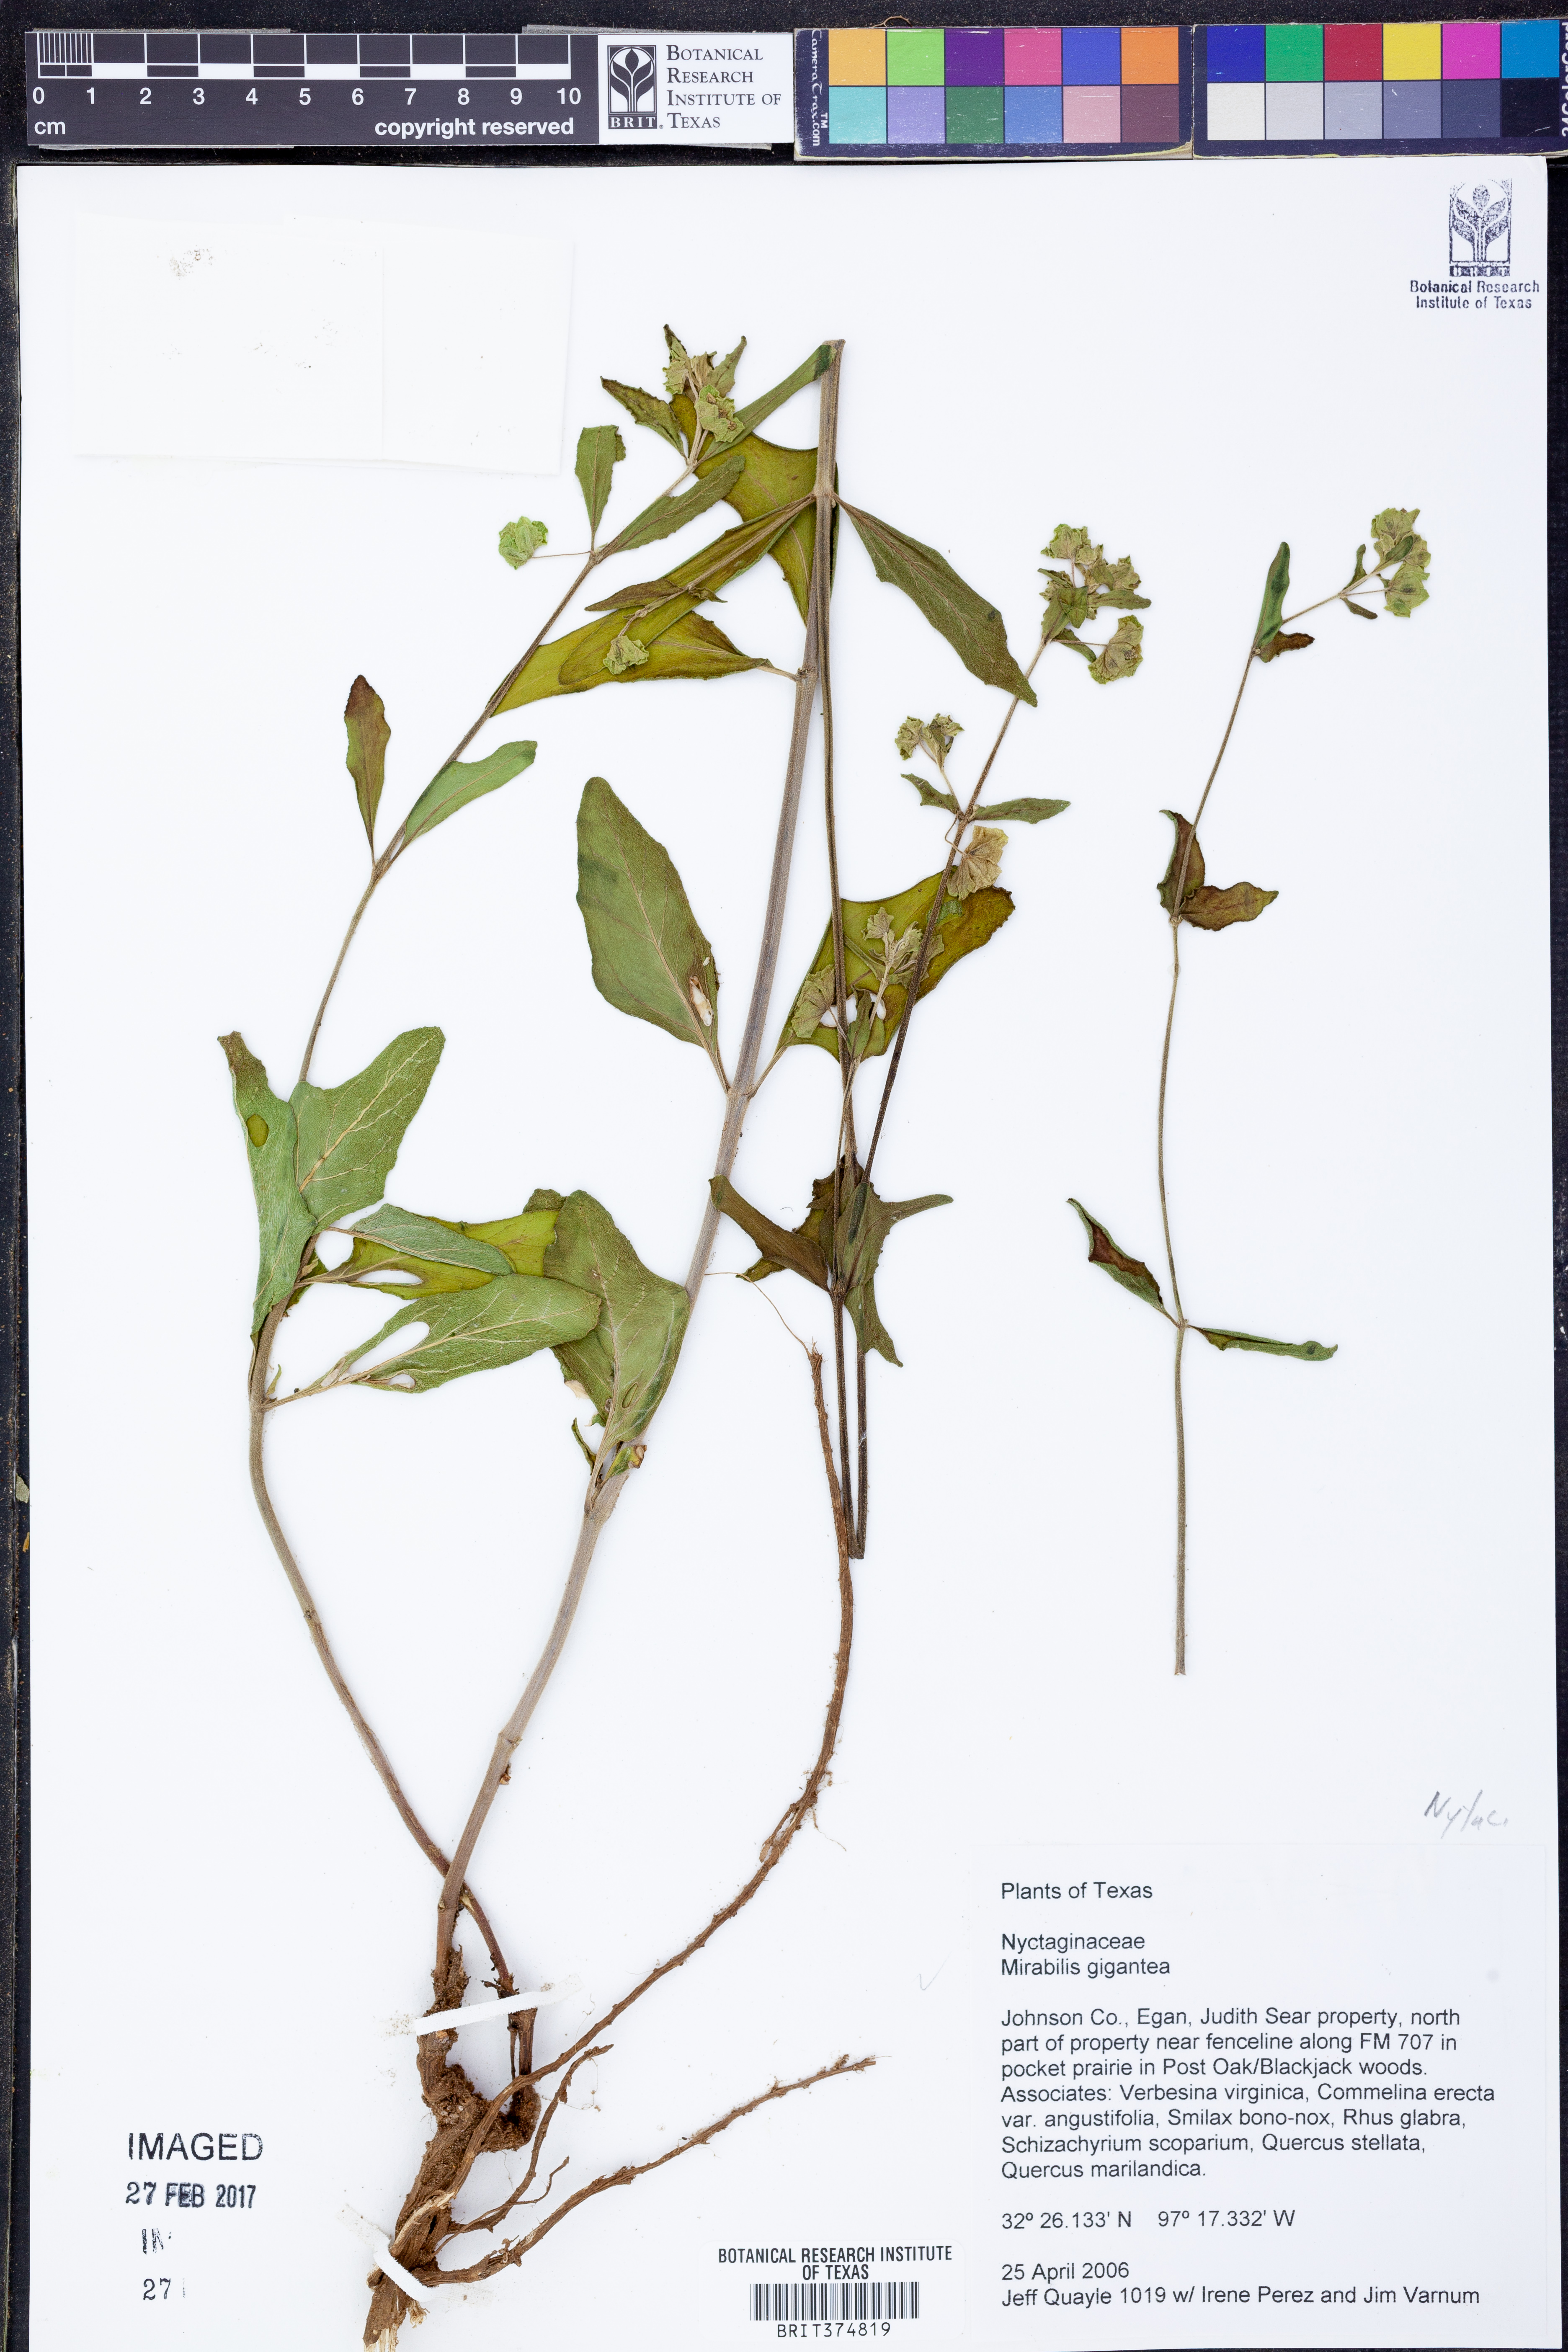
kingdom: Plantae
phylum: Tracheophyta
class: Magnoliopsida
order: Caryophyllales
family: Nyctaginaceae
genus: Mirabilis
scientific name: Mirabilis gigantea
